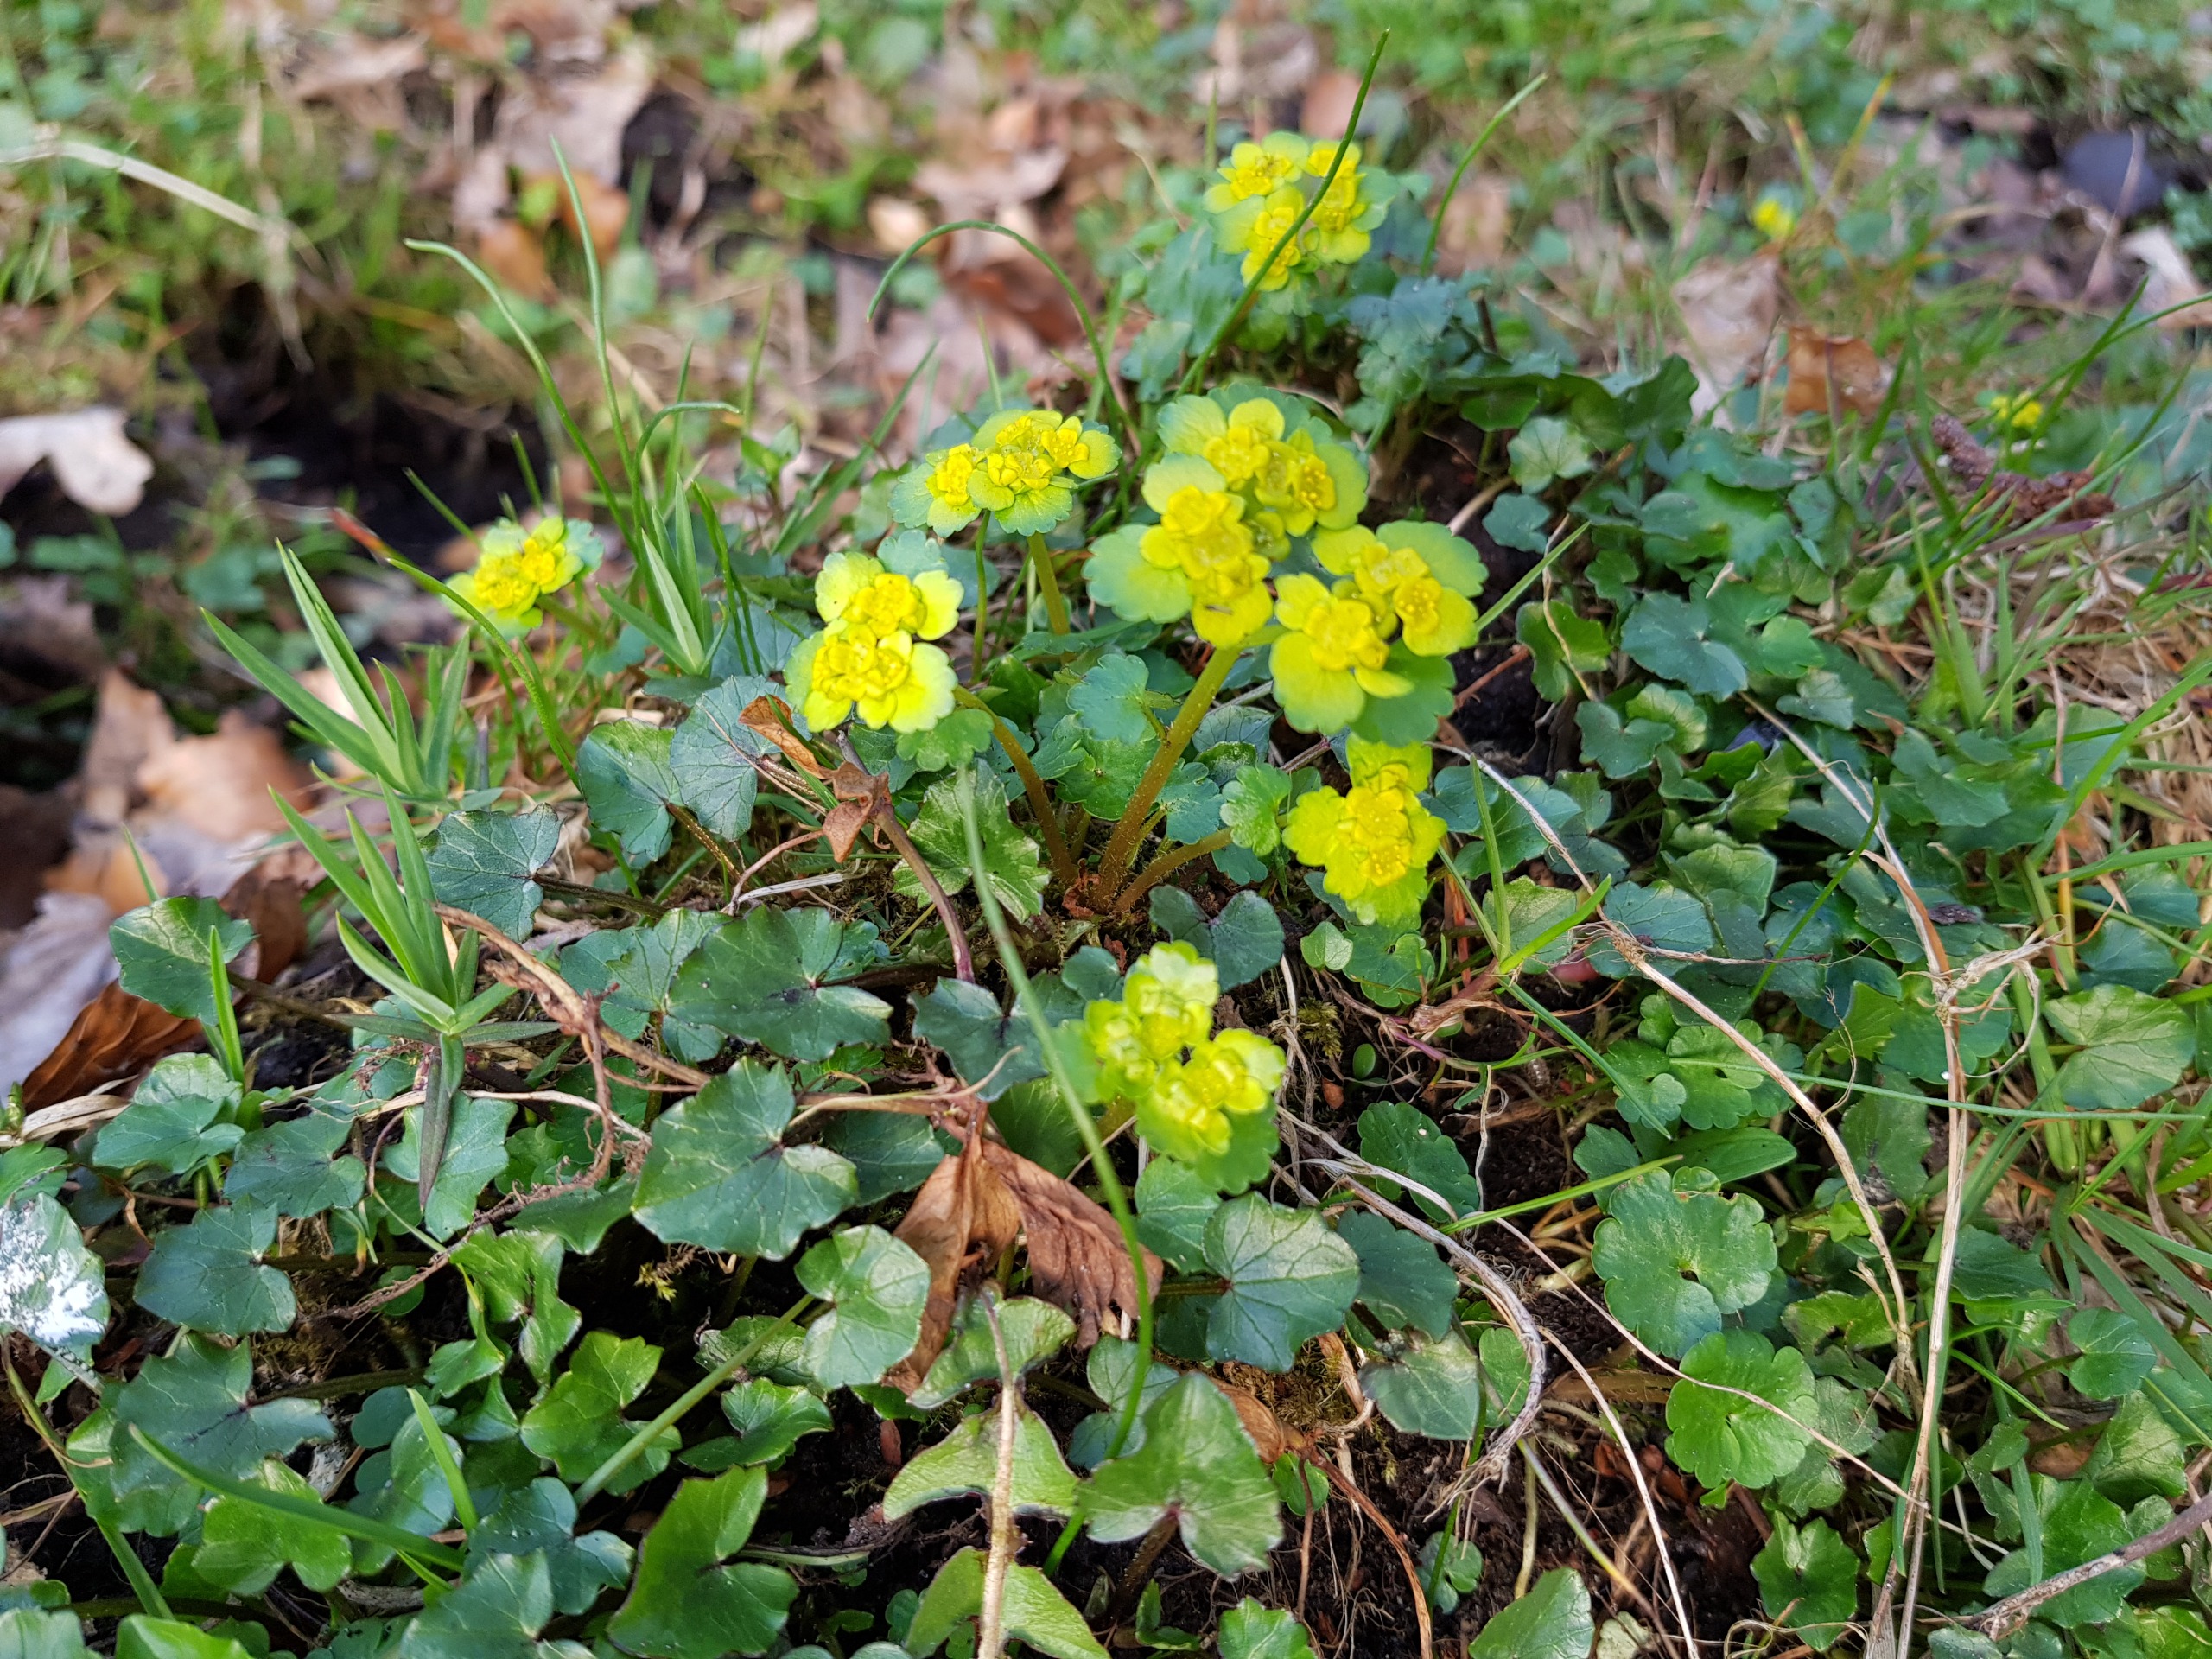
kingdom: Plantae
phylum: Tracheophyta
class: Magnoliopsida
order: Saxifragales
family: Saxifragaceae
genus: Chrysosplenium
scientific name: Chrysosplenium alternifolium
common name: Almindelig milturt
